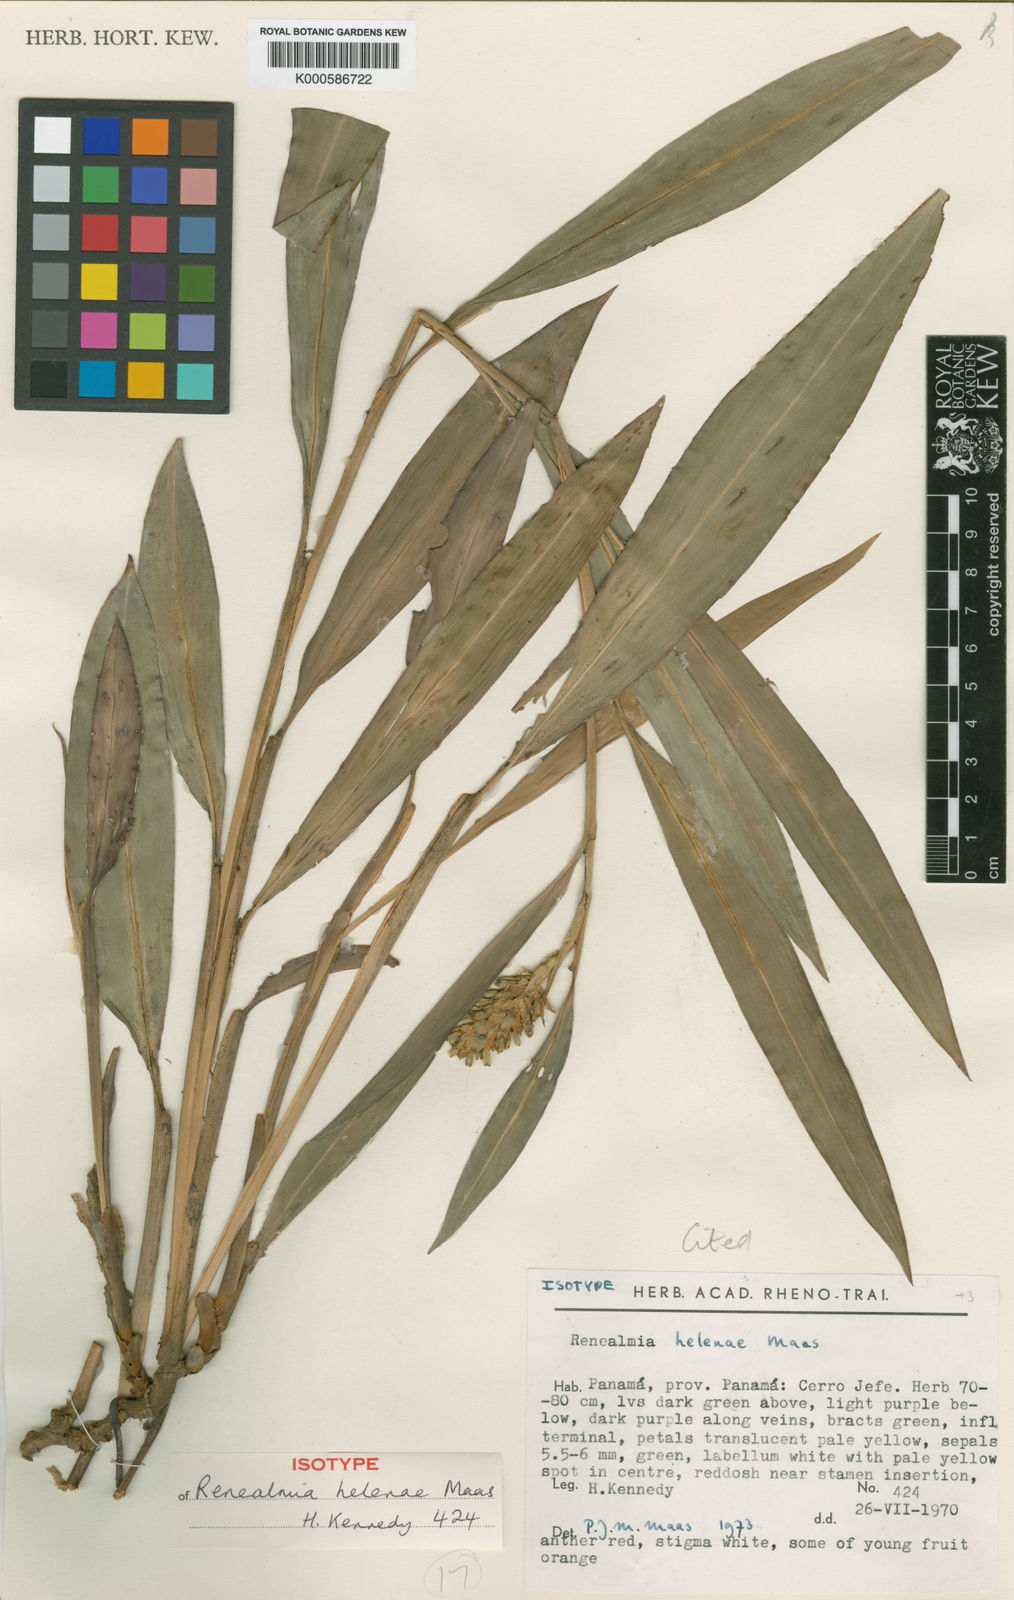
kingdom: Plantae
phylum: Tracheophyta
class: Liliopsida
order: Zingiberales
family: Zingiberaceae
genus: Renealmia
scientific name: Renealmia heleniae
